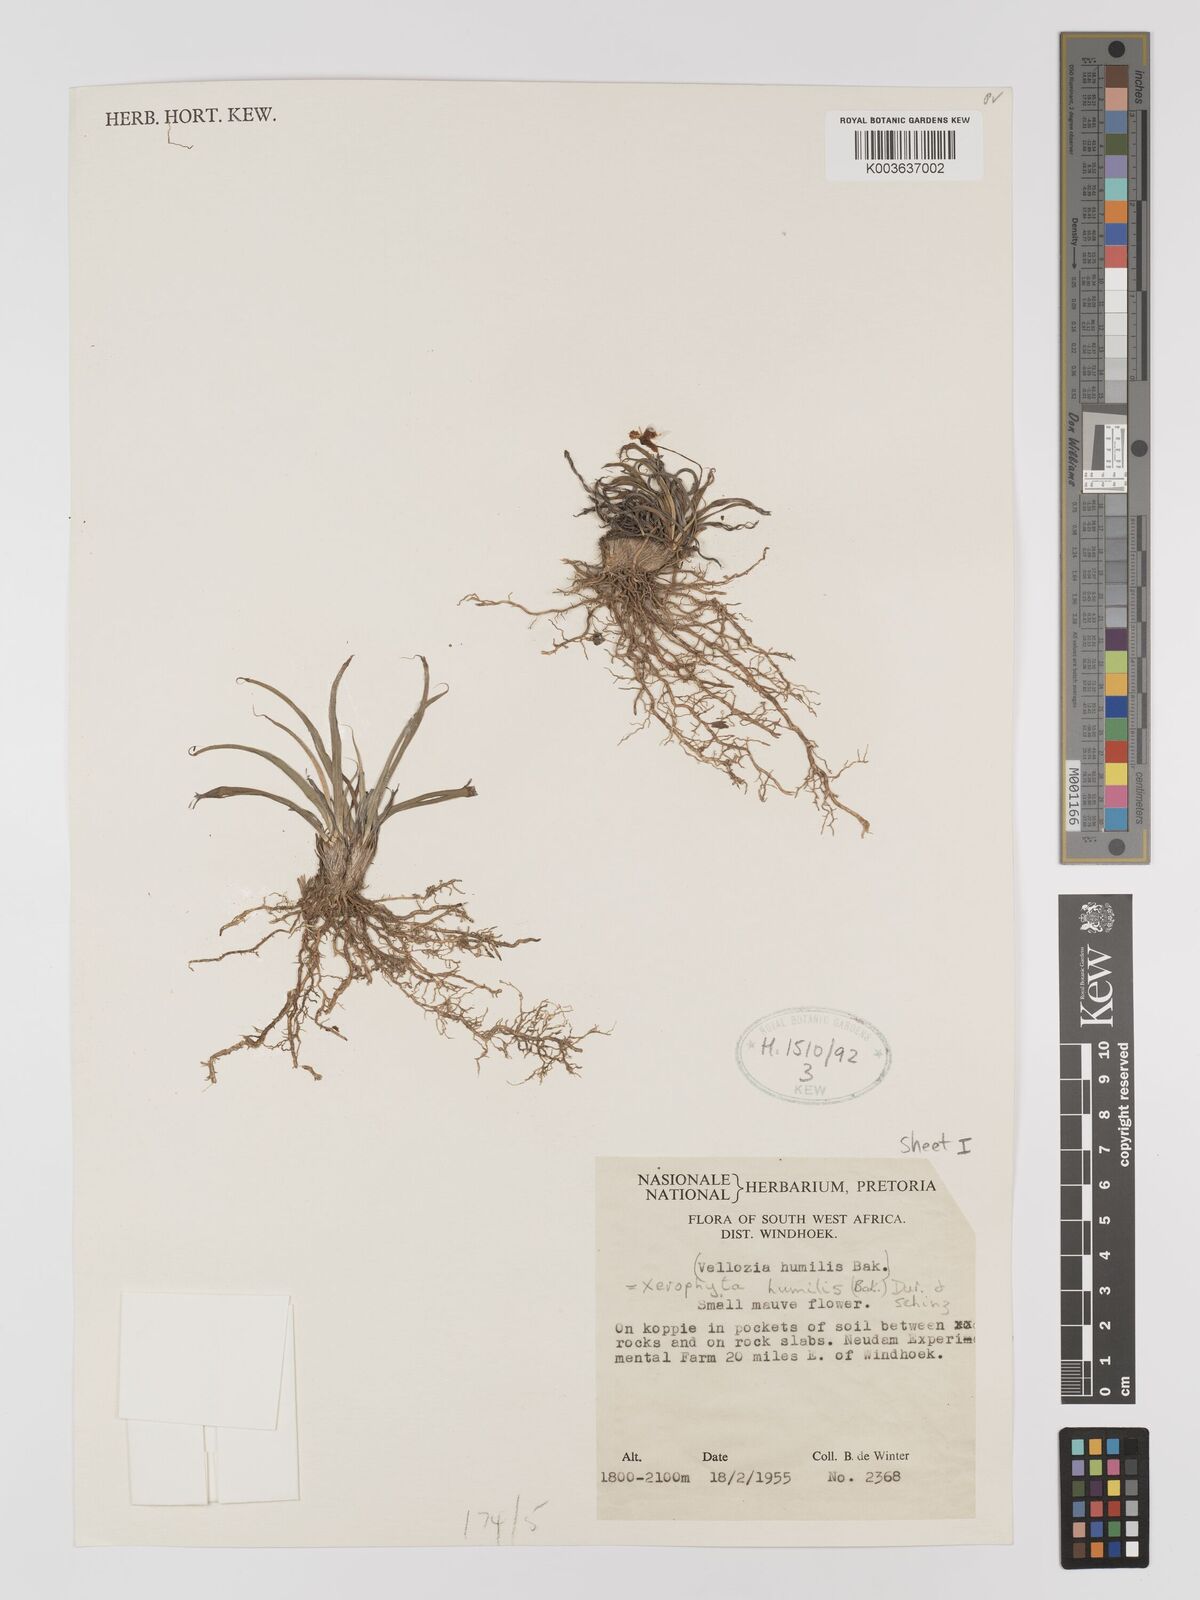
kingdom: Plantae
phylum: Tracheophyta
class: Liliopsida
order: Pandanales
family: Velloziaceae
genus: Xerophyta
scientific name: Xerophyta humilis
